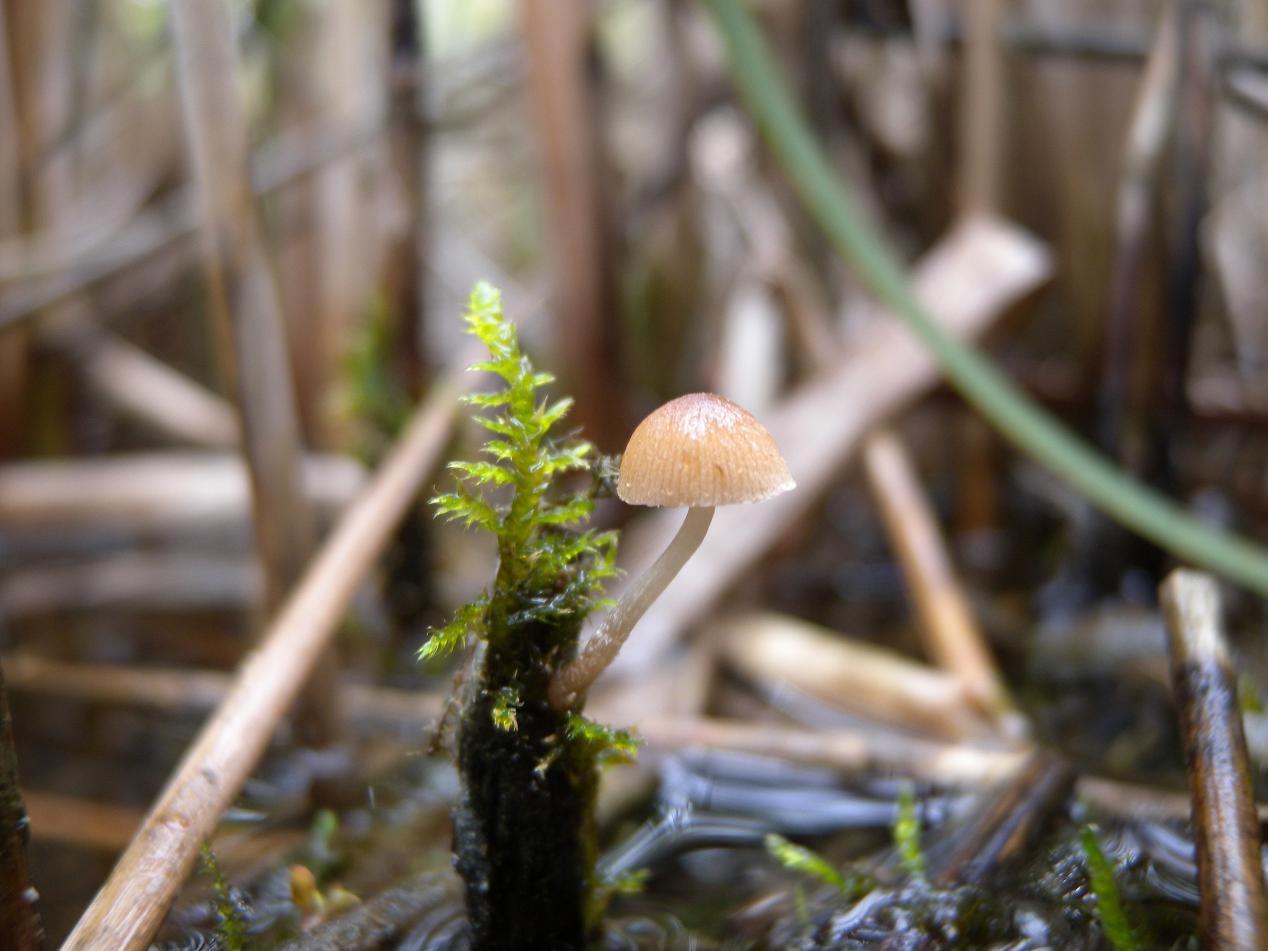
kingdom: Fungi
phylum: Basidiomycota
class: Agaricomycetes
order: Agaricales
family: Psathyrellaceae
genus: Candolleomyces
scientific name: Candolleomyces typhae
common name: dunhammer-mørkhat
